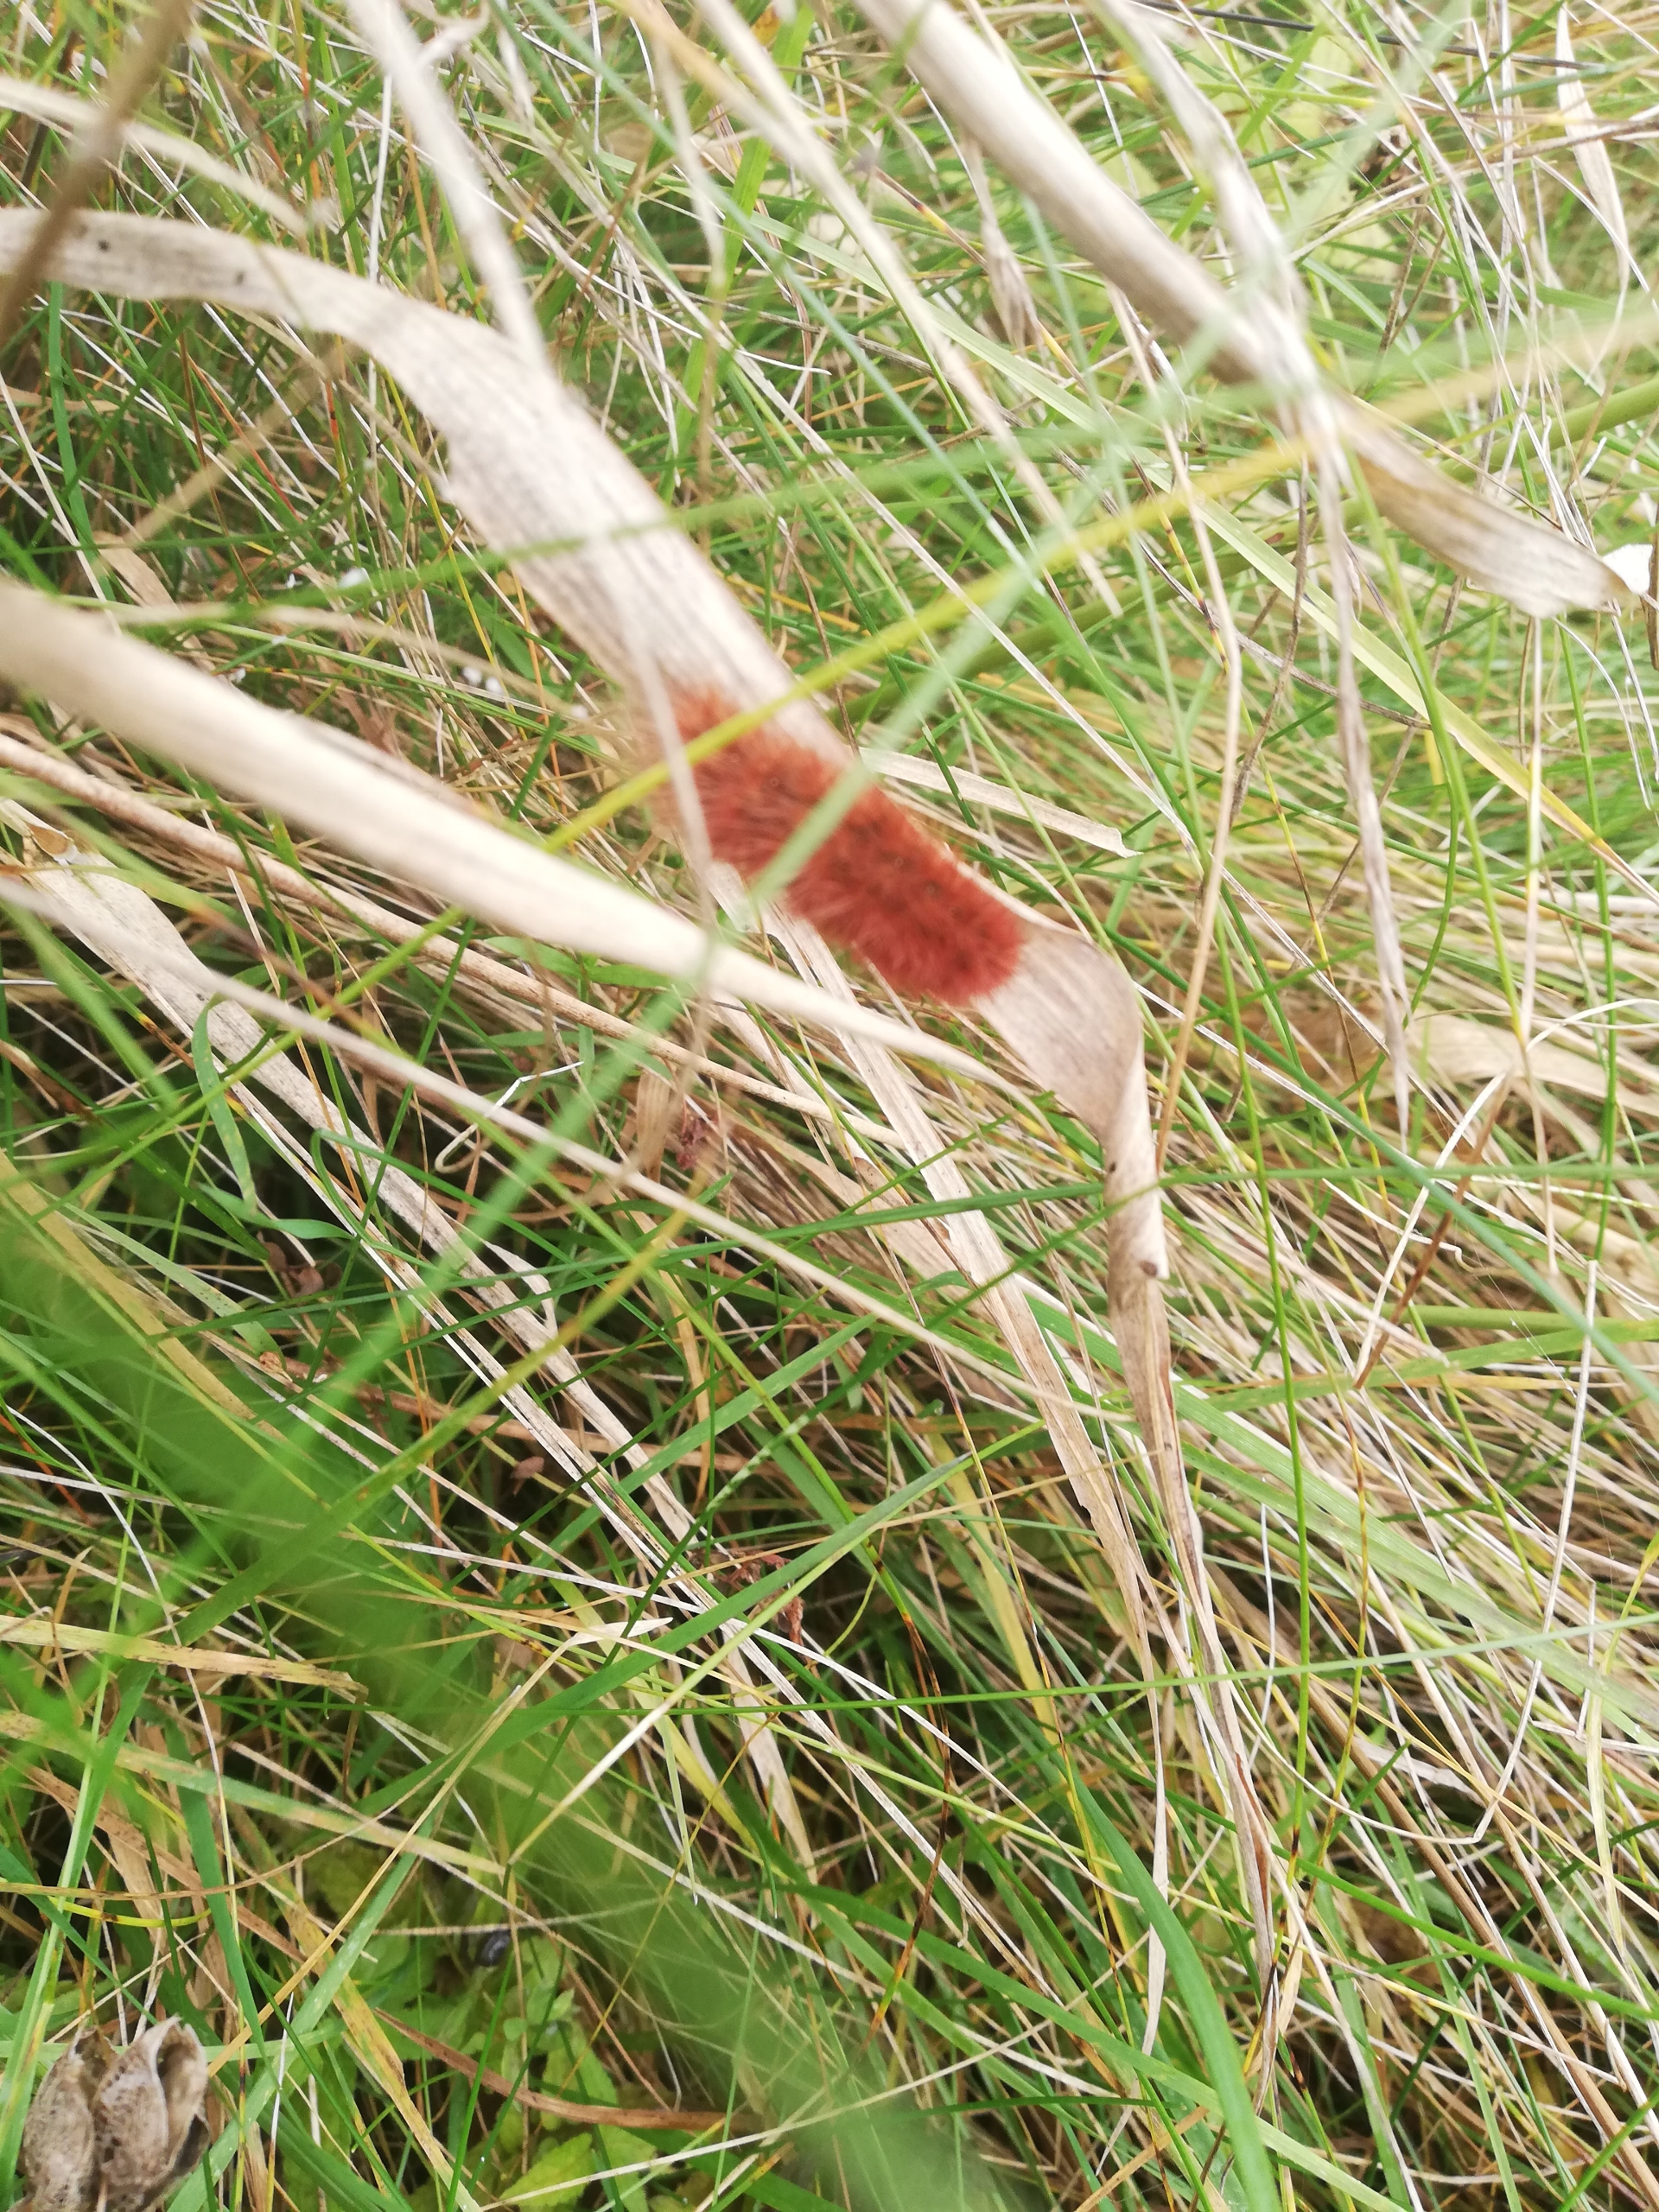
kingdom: Animalia
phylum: Arthropoda
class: Insecta
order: Lepidoptera
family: Erebidae
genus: Phragmatobia
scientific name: Phragmatobia fuliginosa
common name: Kanelbjørn
